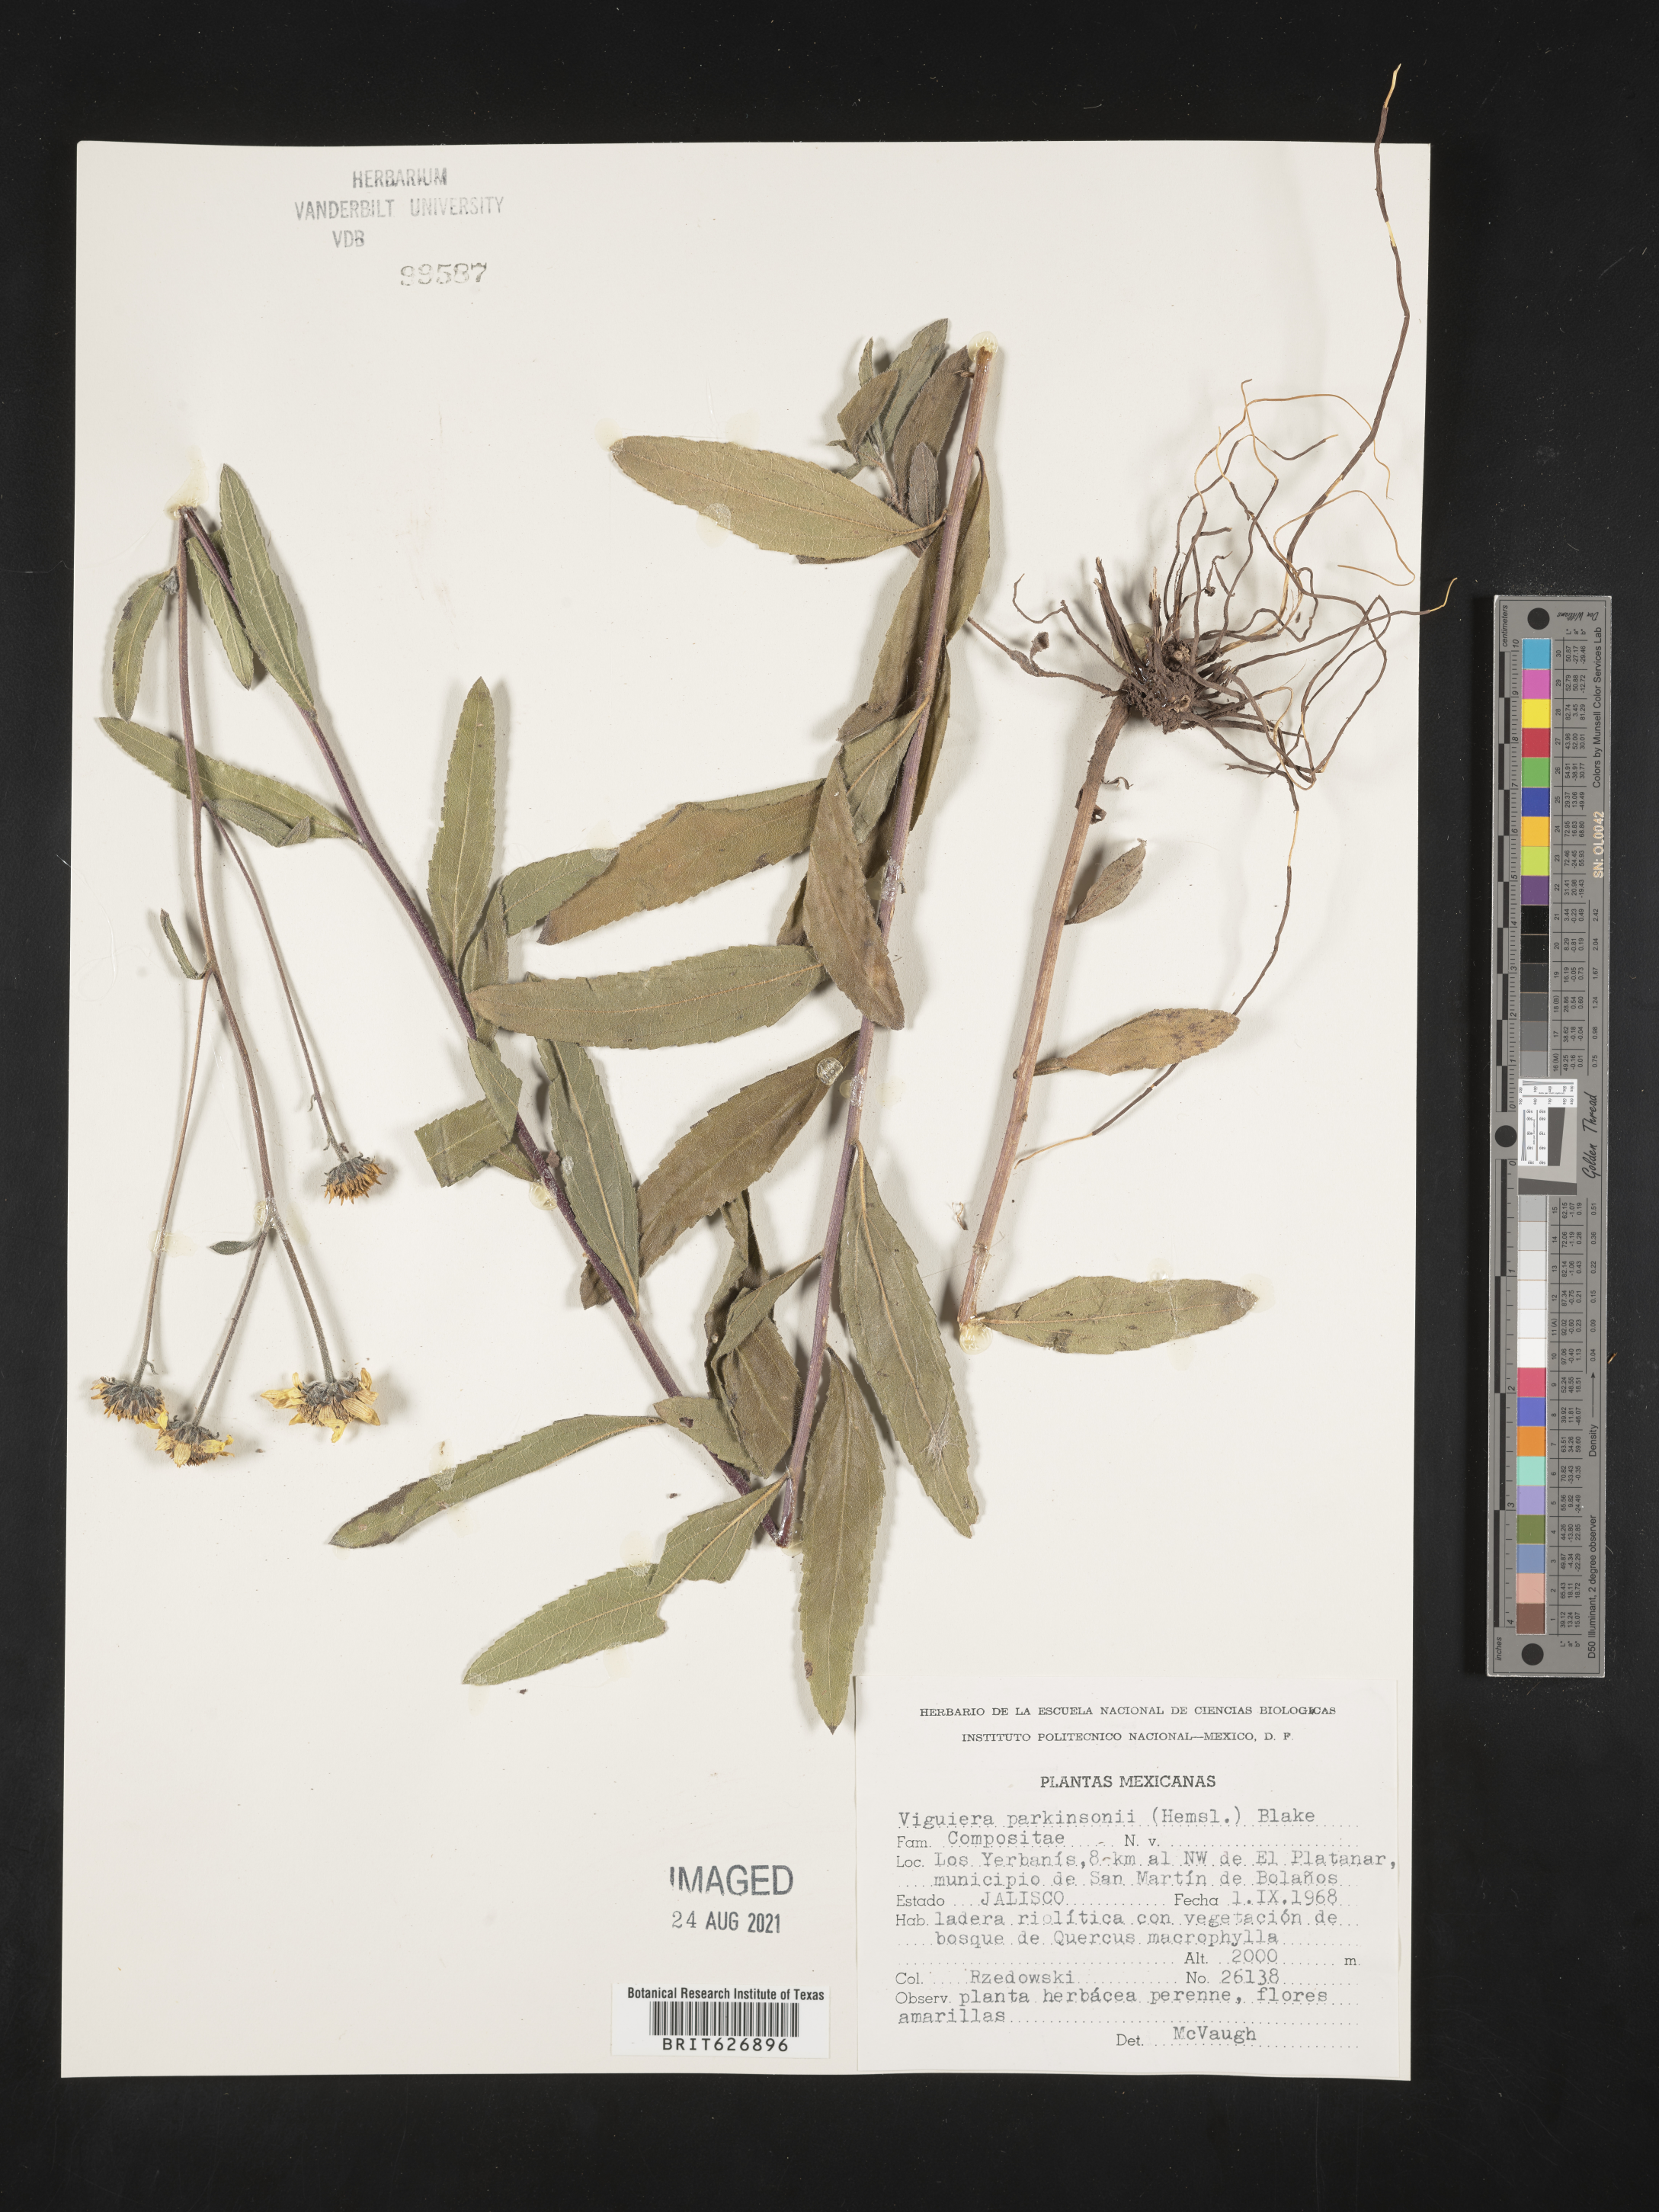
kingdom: Plantae
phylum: Tracheophyta
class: Magnoliopsida
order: Asterales
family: Asteraceae
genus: Viguiera
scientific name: Viguiera
